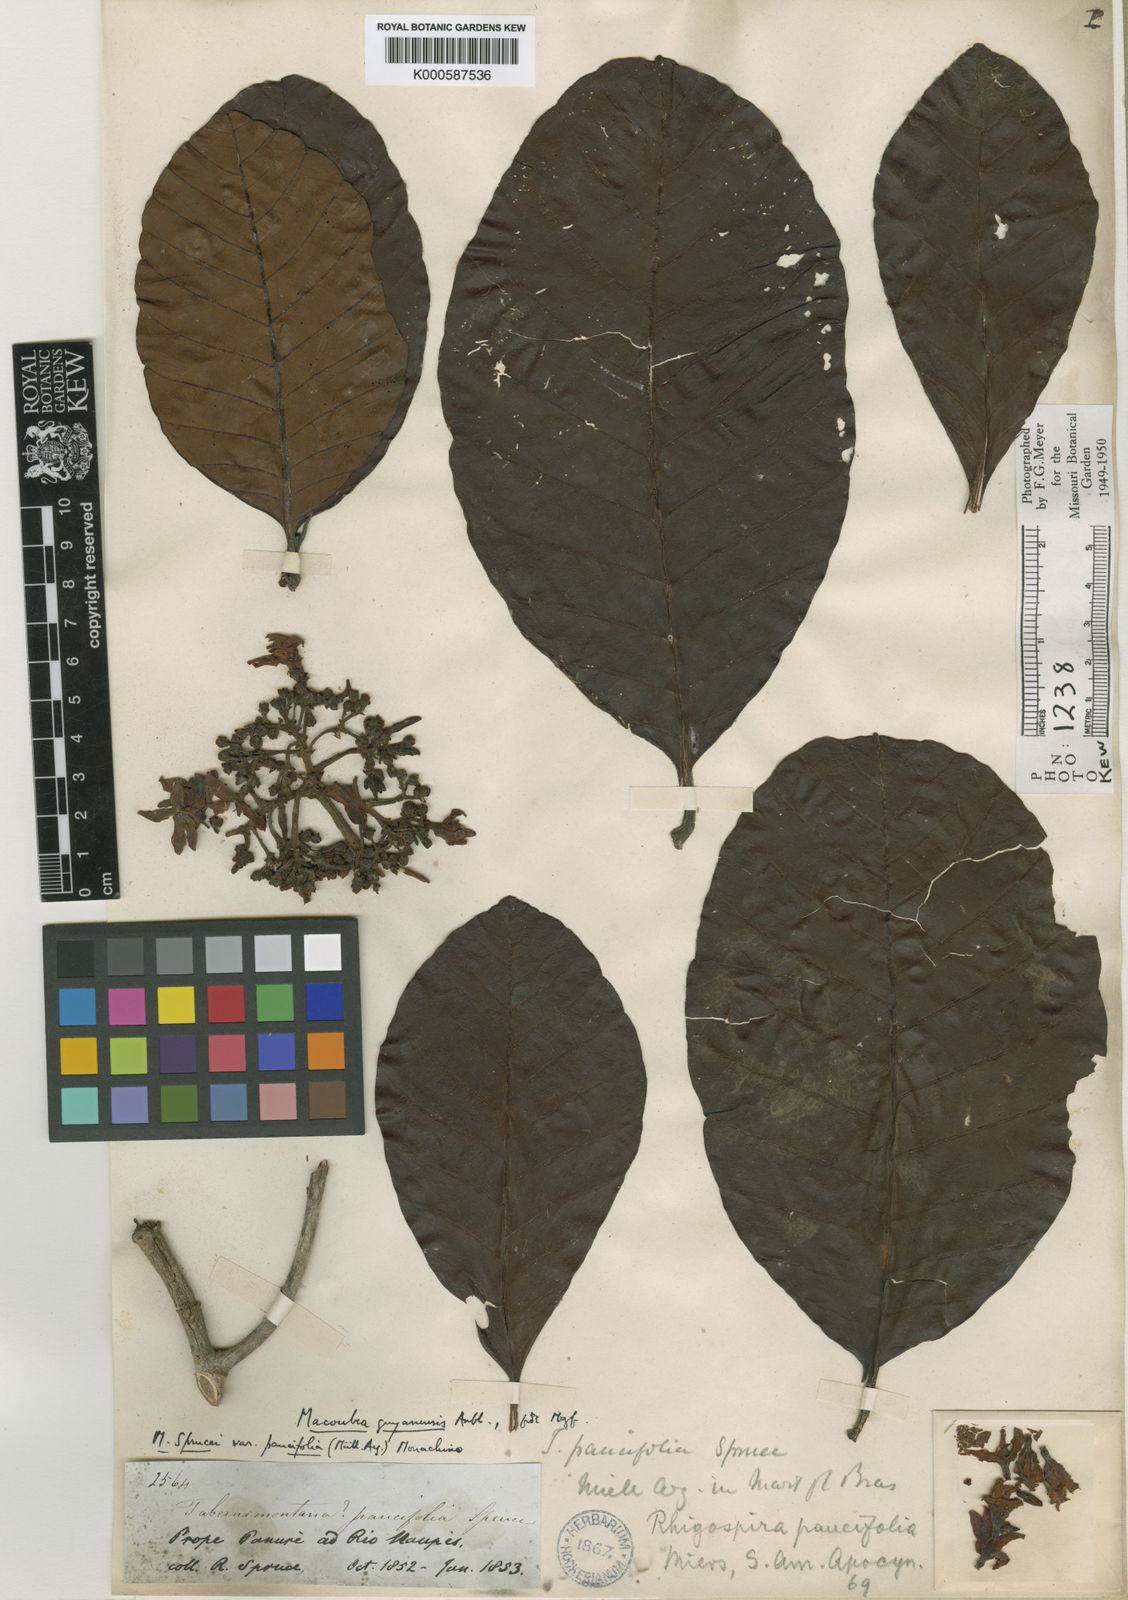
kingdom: Plantae
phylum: Tracheophyta
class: Magnoliopsida
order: Gentianales
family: Apocynaceae
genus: Macoubea
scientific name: Macoubea
